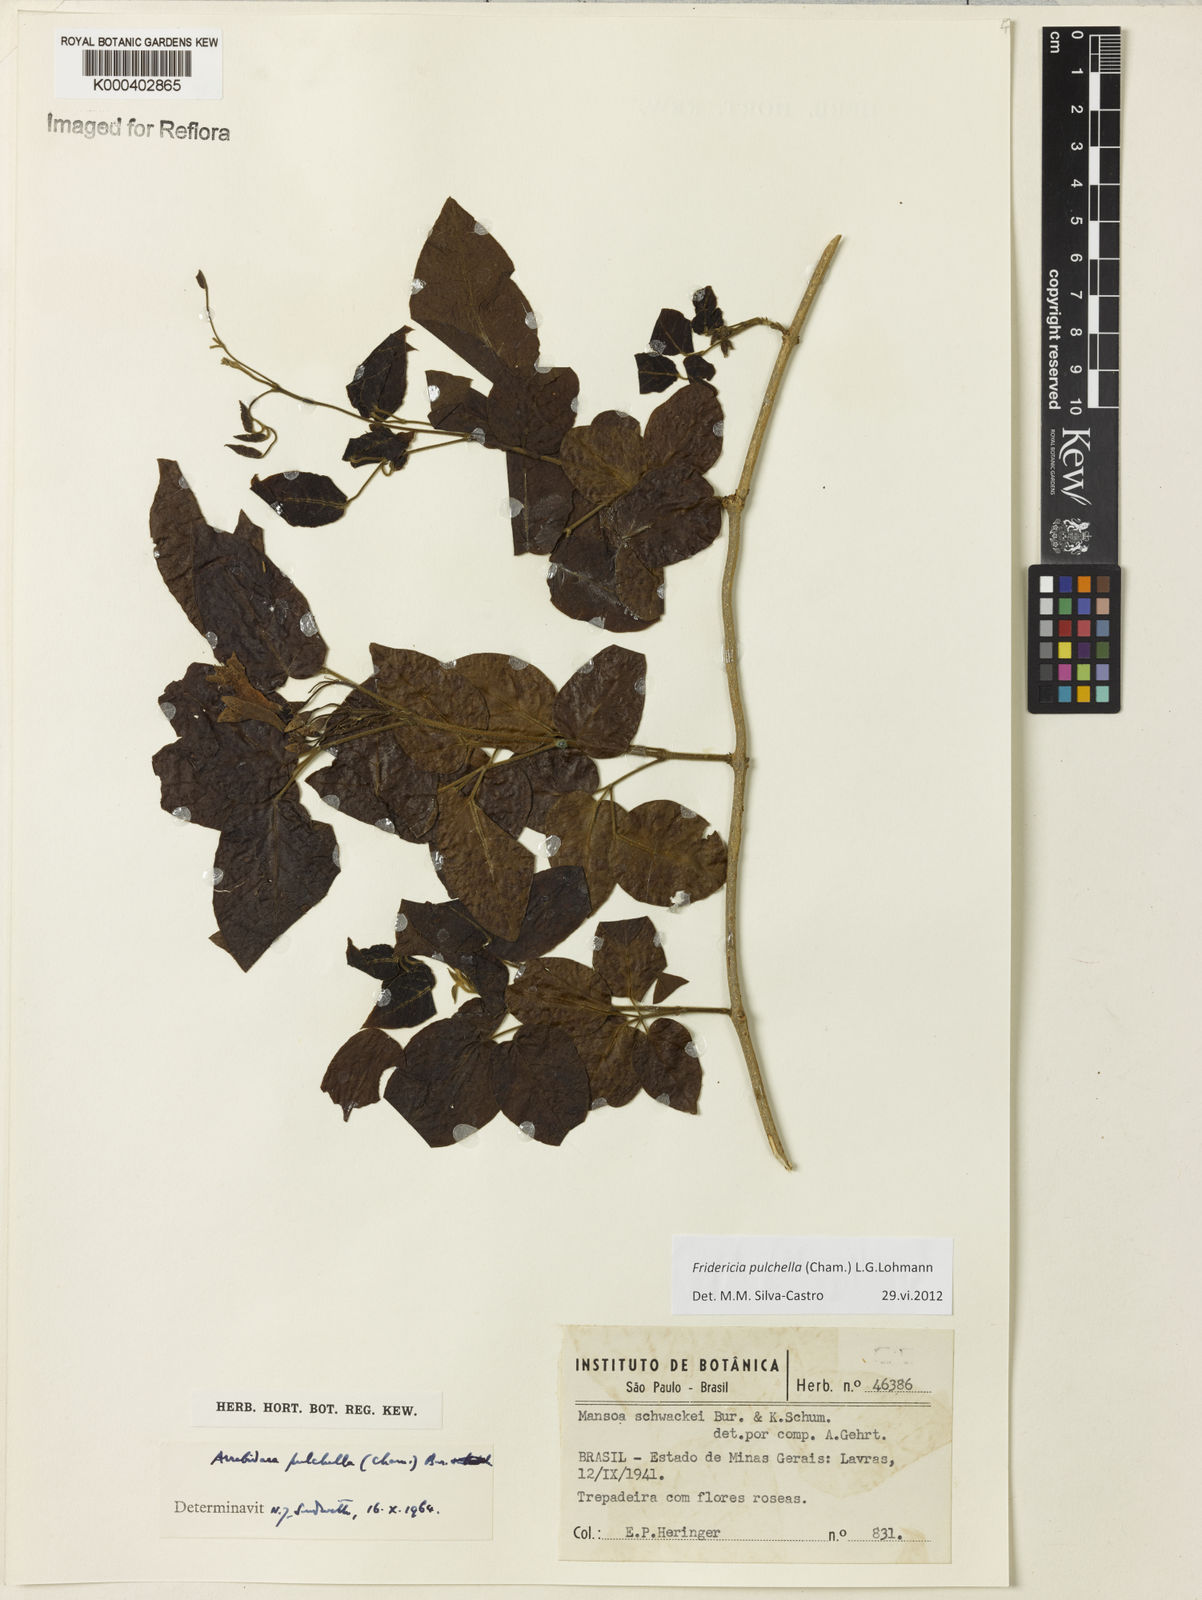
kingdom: Plantae
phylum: Tracheophyta
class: Magnoliopsida
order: Lamiales
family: Bignoniaceae
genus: Fridericia
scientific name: Fridericia
